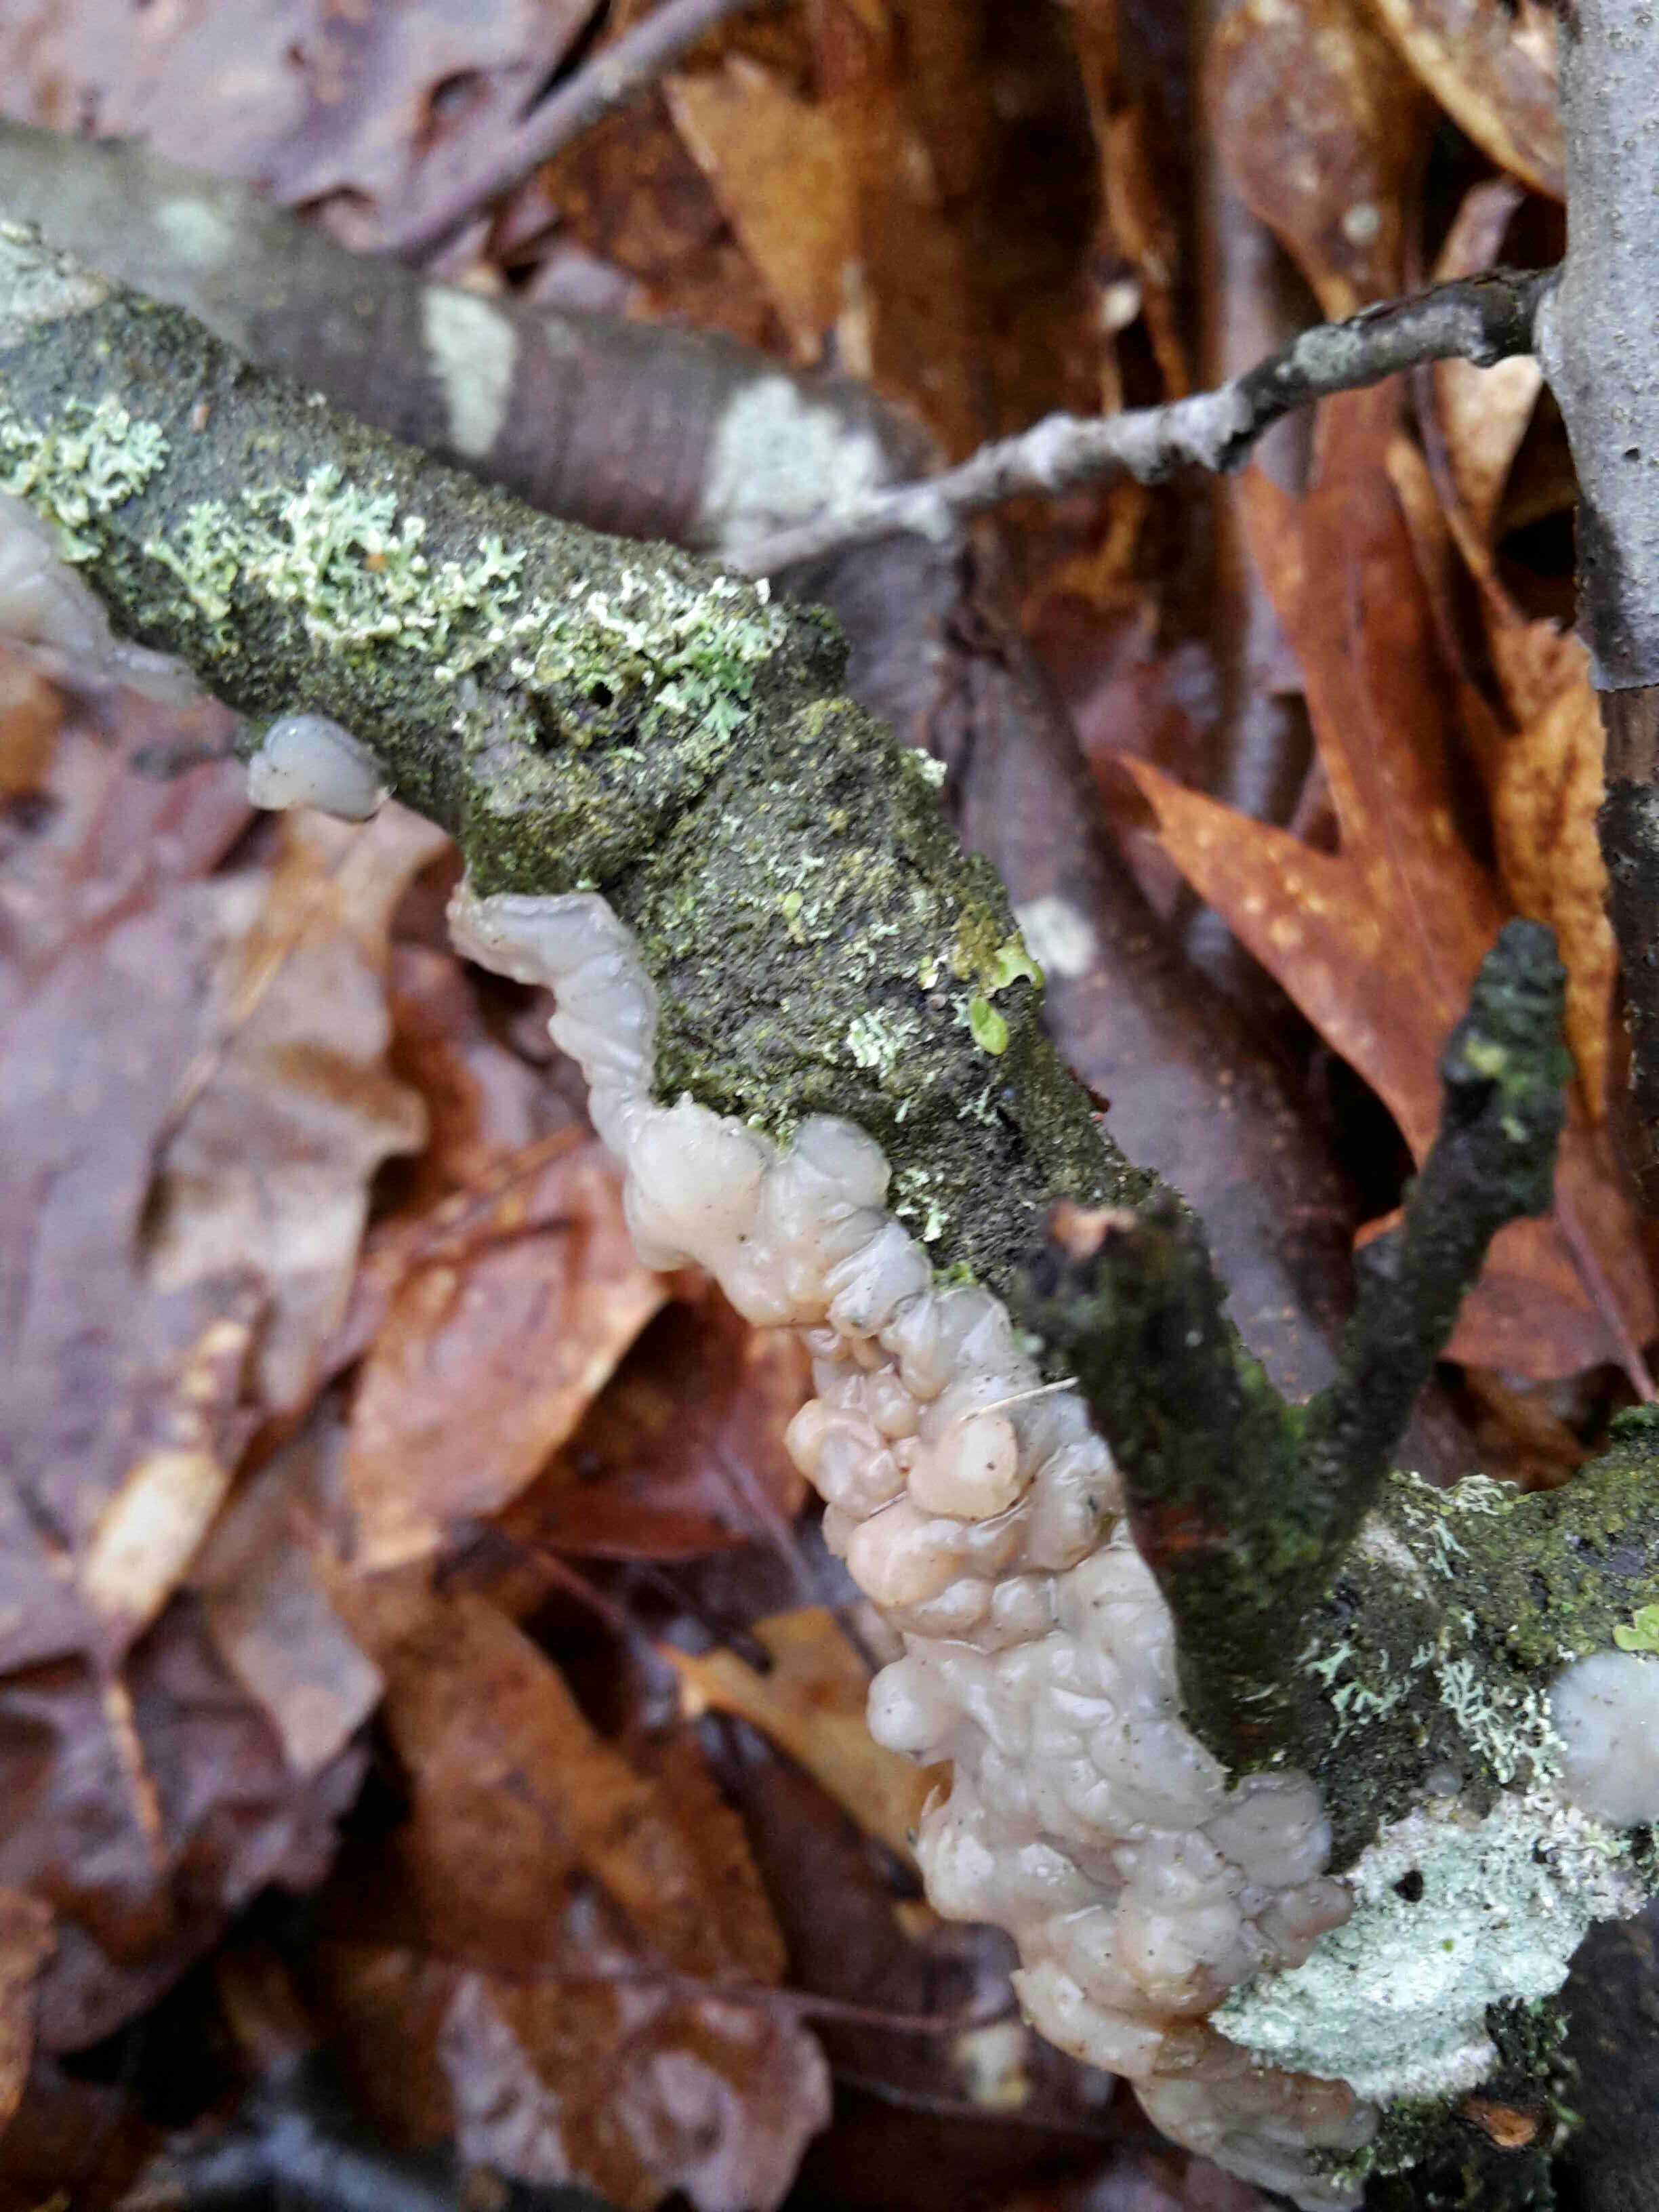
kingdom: Fungi
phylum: Basidiomycota
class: Agaricomycetes
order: Auriculariales
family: Auriculariaceae
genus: Exidia
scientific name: Exidia thuretiana
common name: hvidlig bævretop
